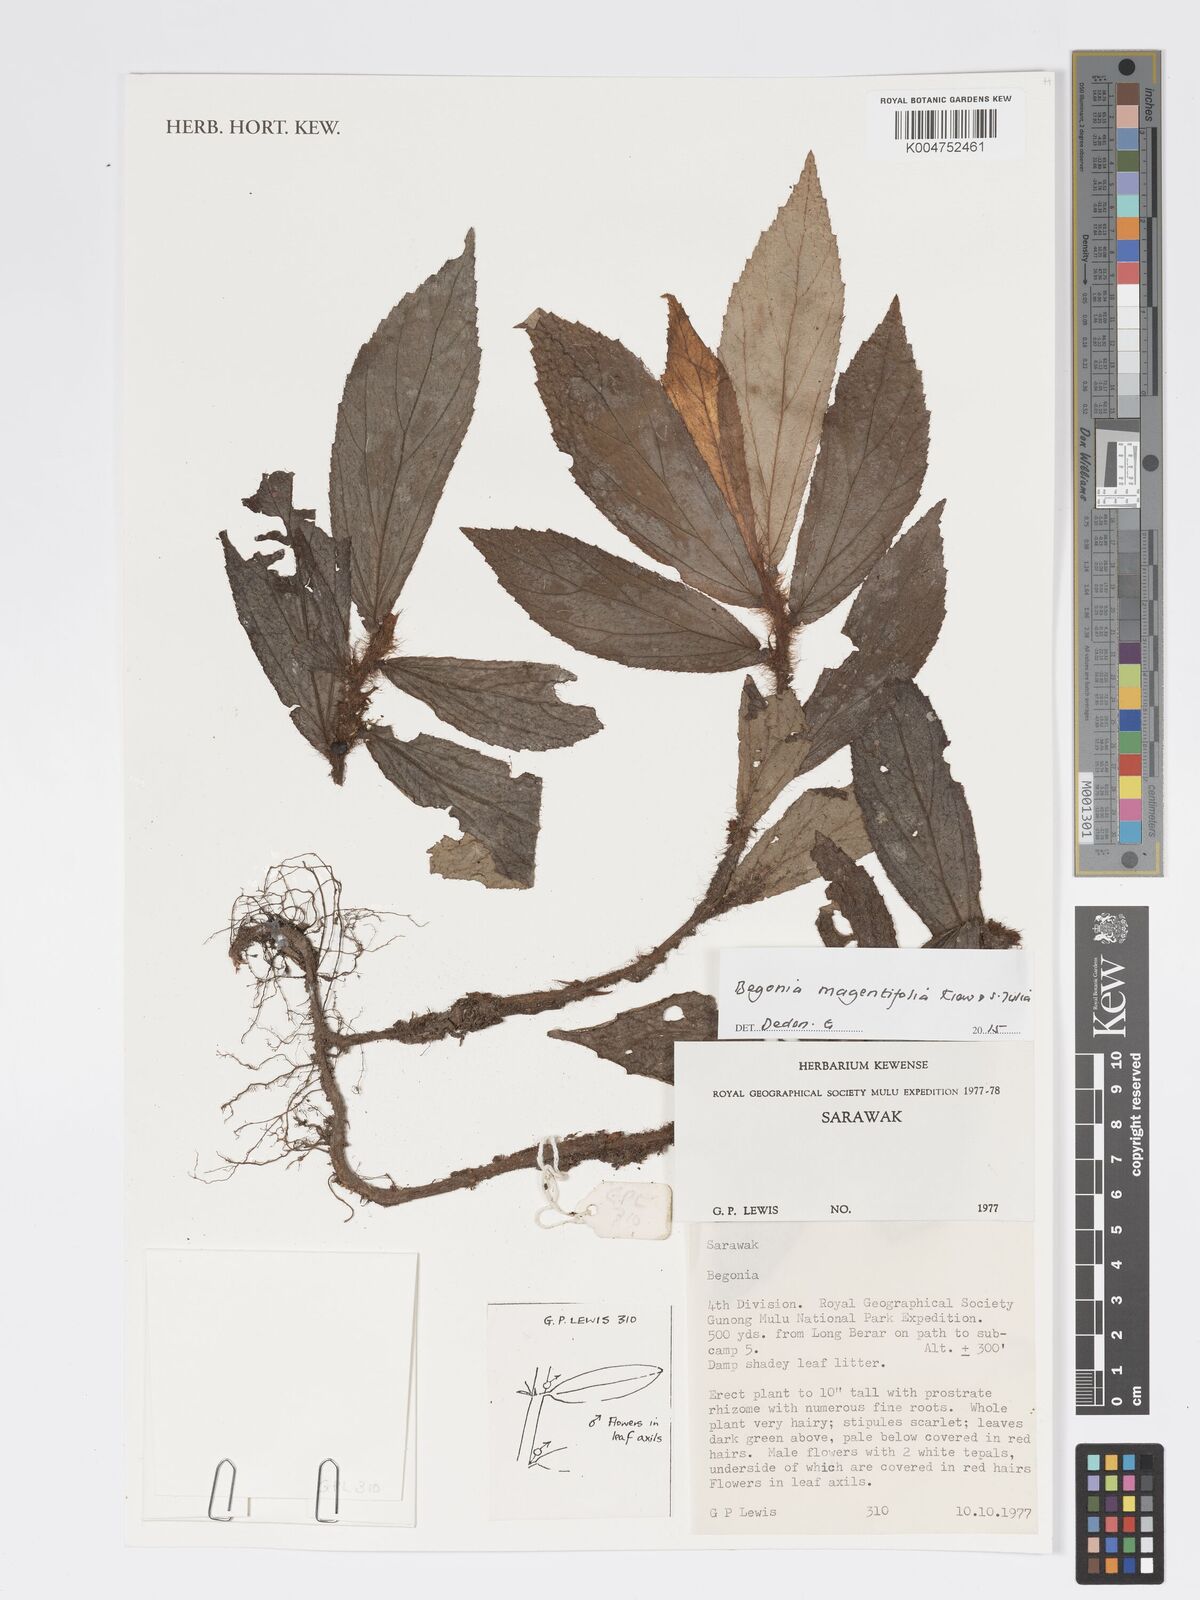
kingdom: Plantae
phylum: Tracheophyta
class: Magnoliopsida
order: Cucurbitales
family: Begoniaceae
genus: Begonia
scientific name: Begonia magentifolia
